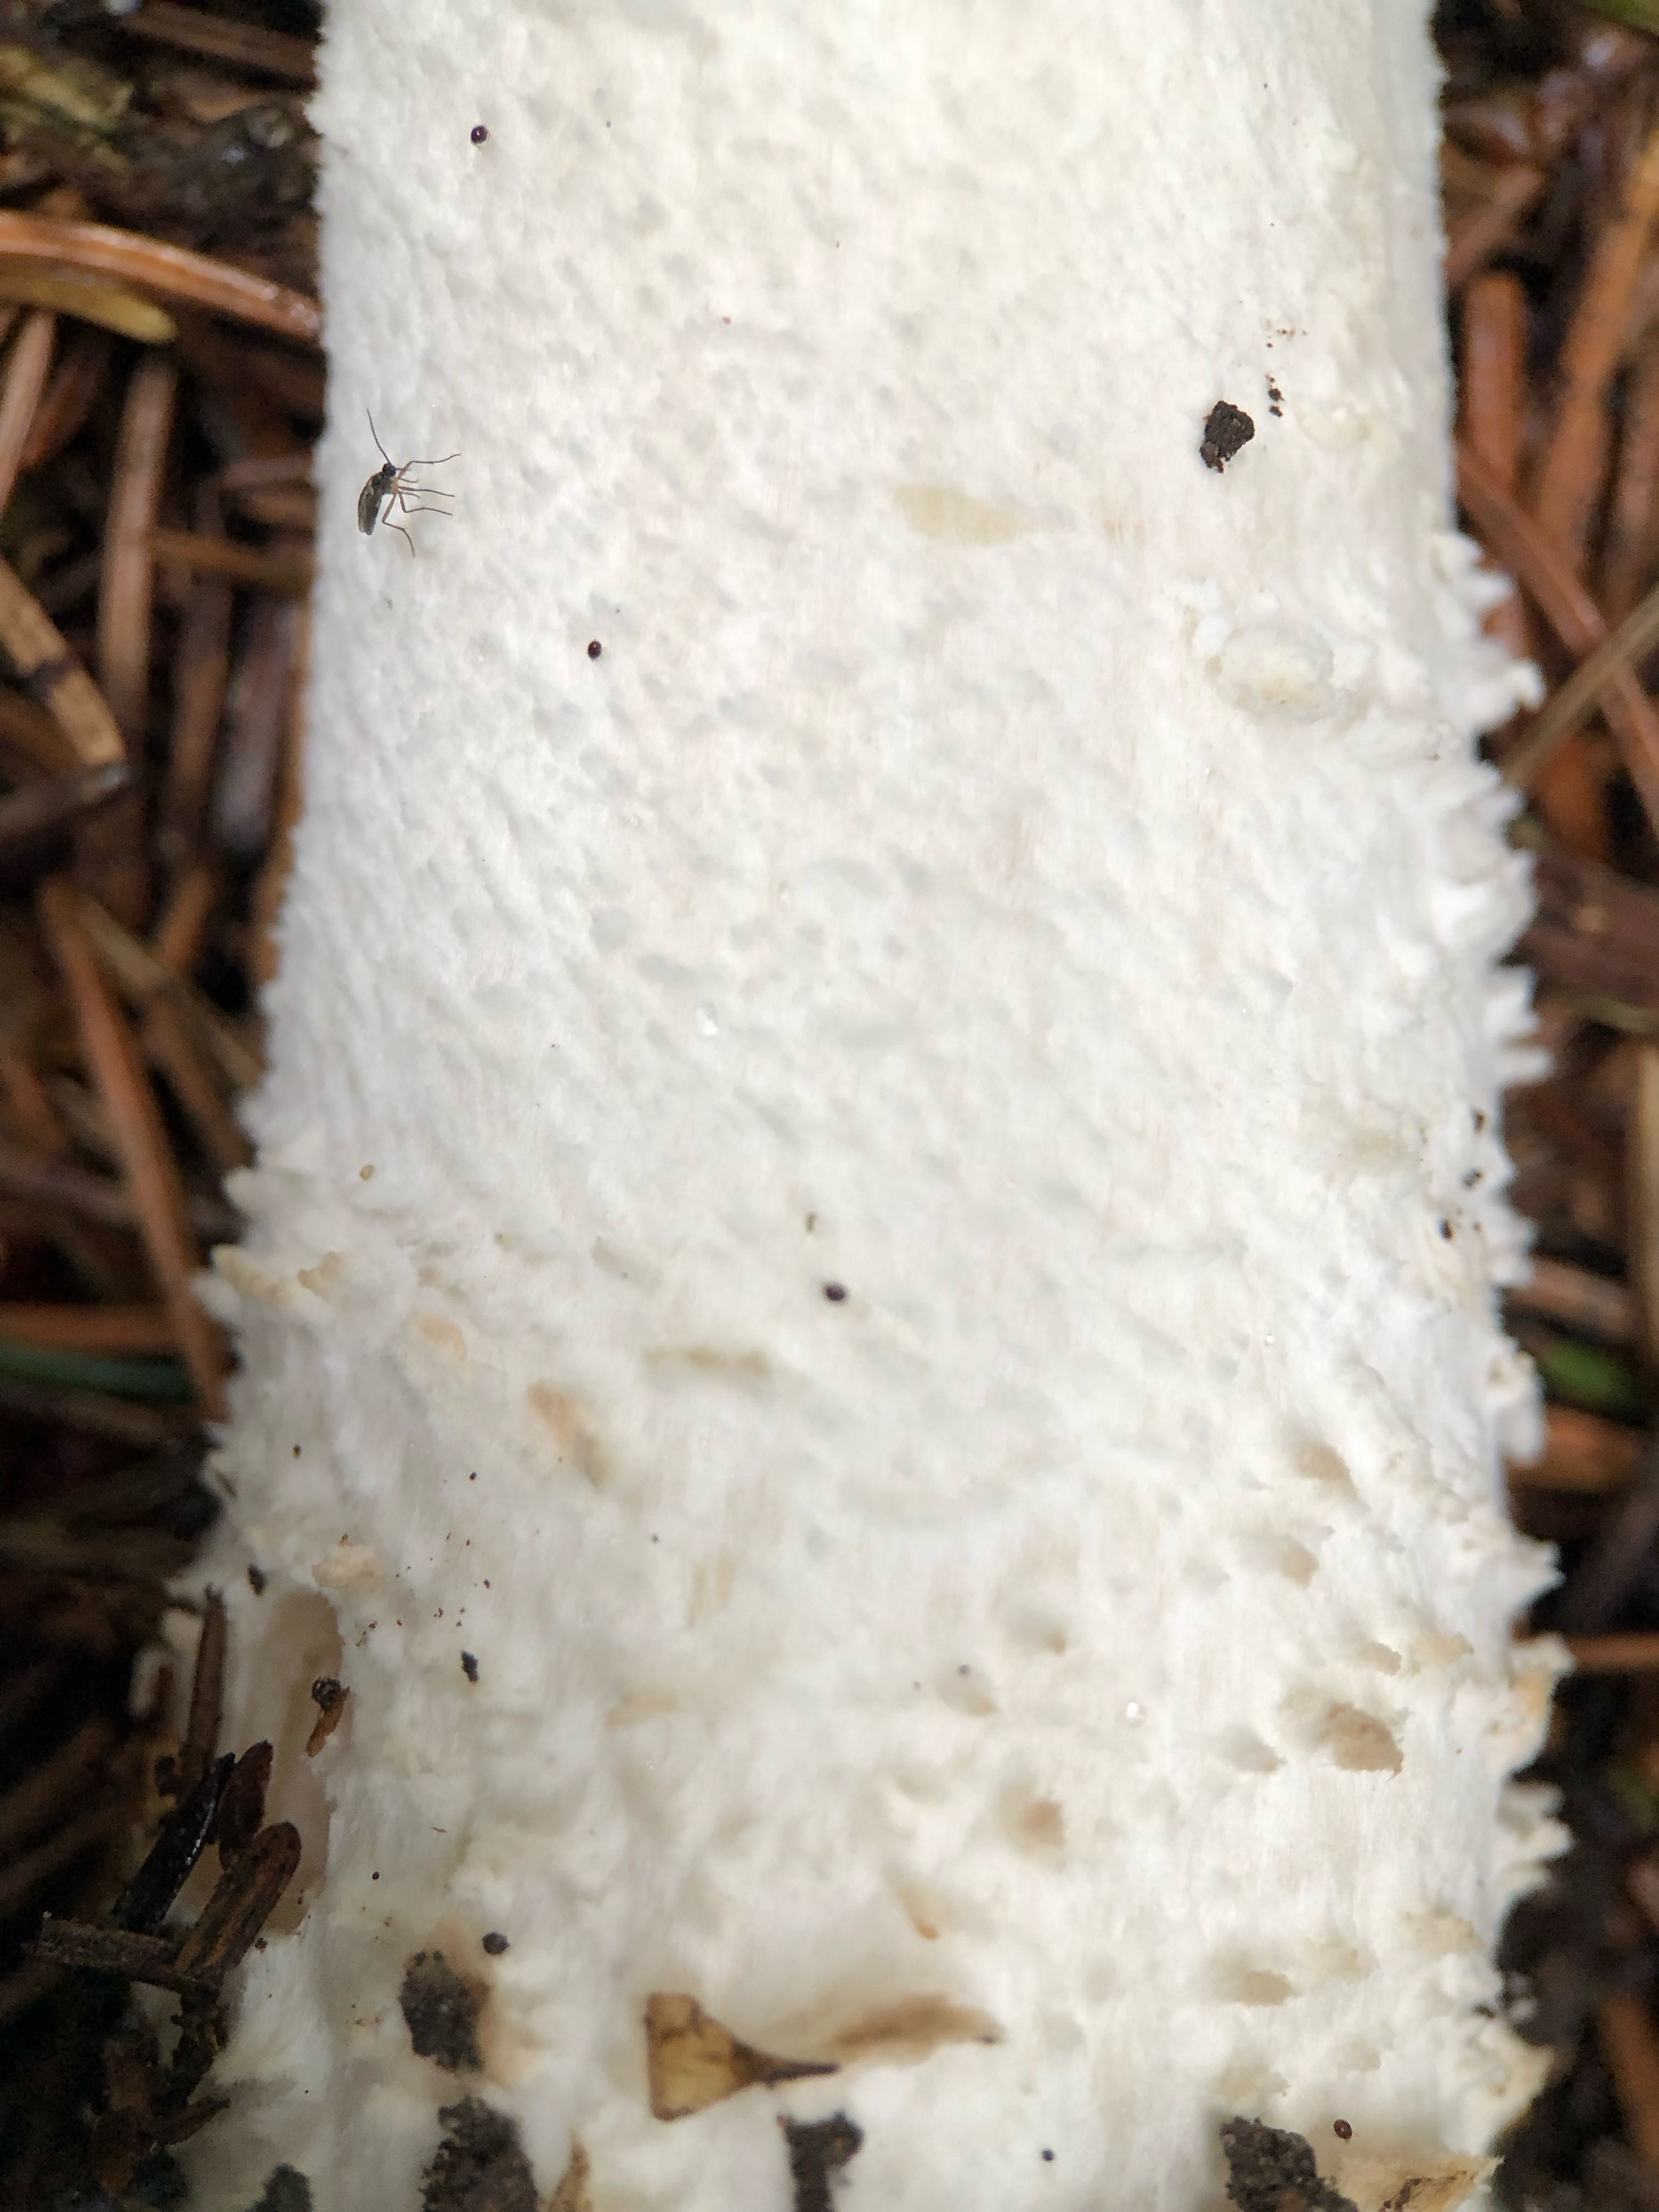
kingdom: Fungi
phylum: Basidiomycota
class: Agaricomycetes
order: Agaricales
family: Agaricaceae
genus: Agaricus
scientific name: Agaricus augustus
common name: prægtig champignon
